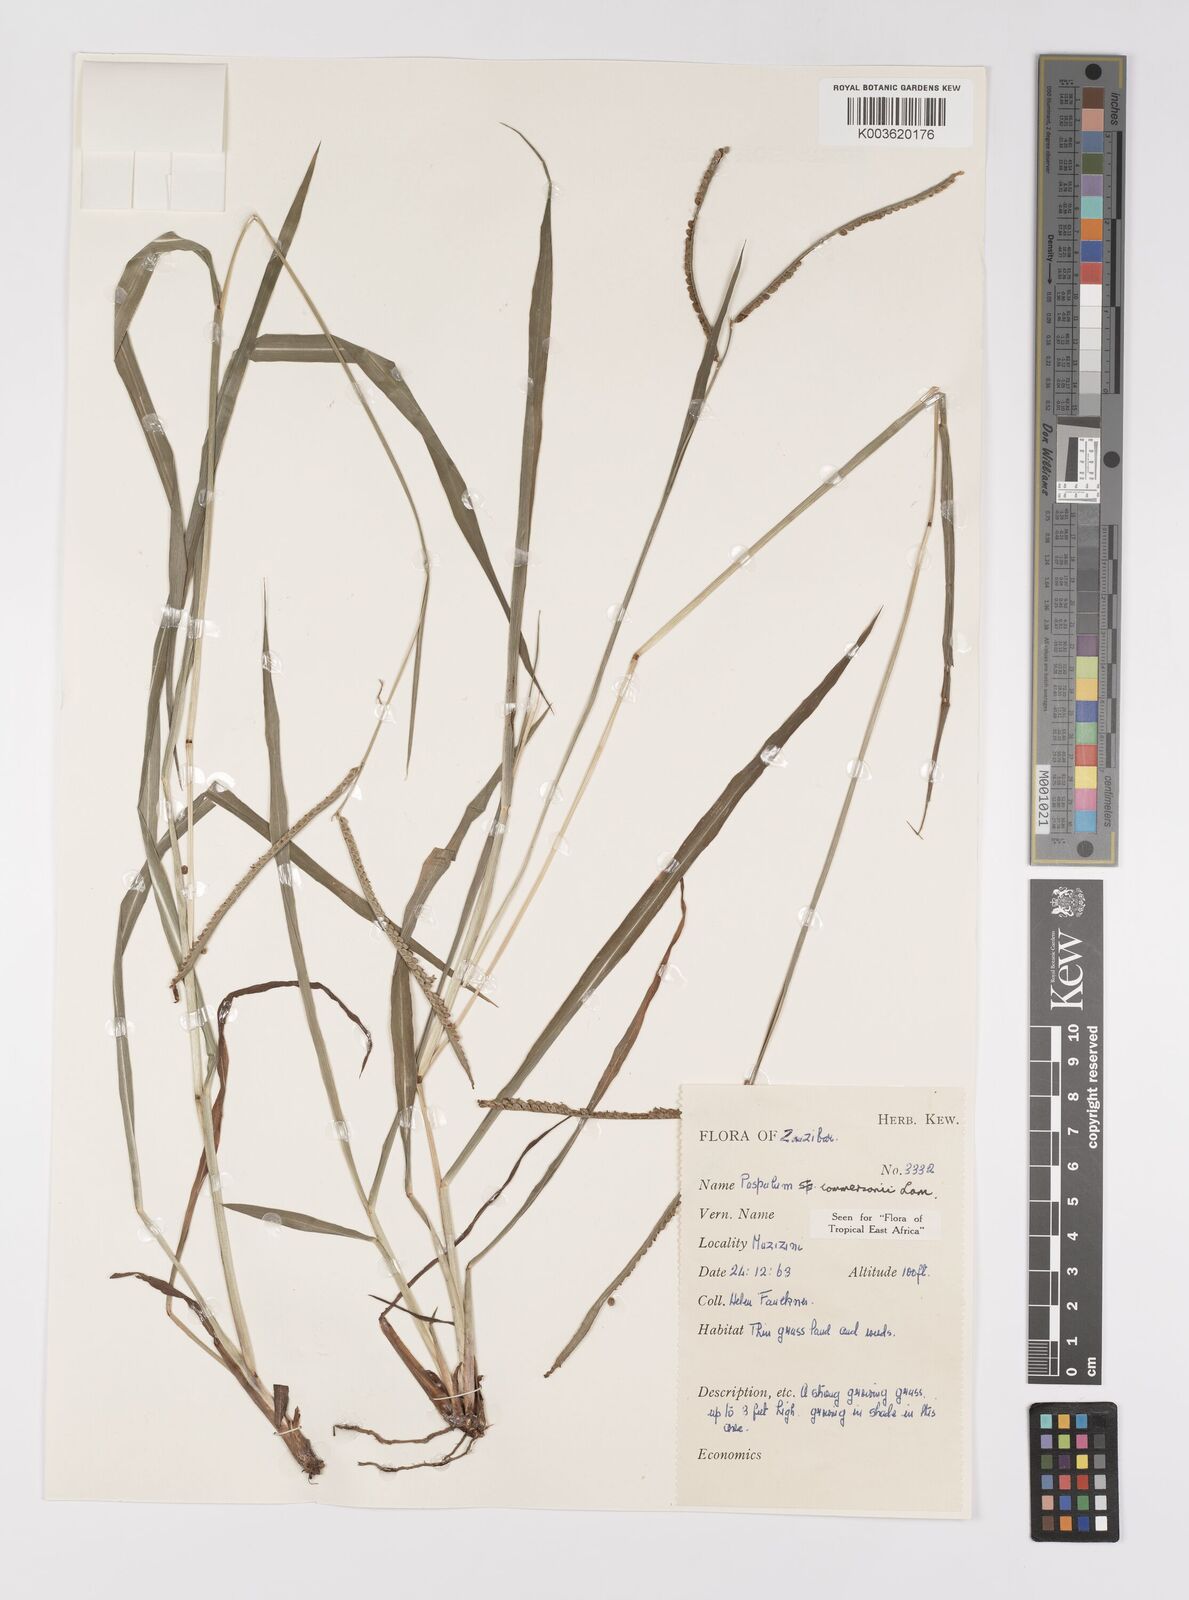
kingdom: Plantae
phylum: Tracheophyta
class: Liliopsida
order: Poales
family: Poaceae
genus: Paspalum
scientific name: Paspalum scrobiculatum
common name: Kodo millet
